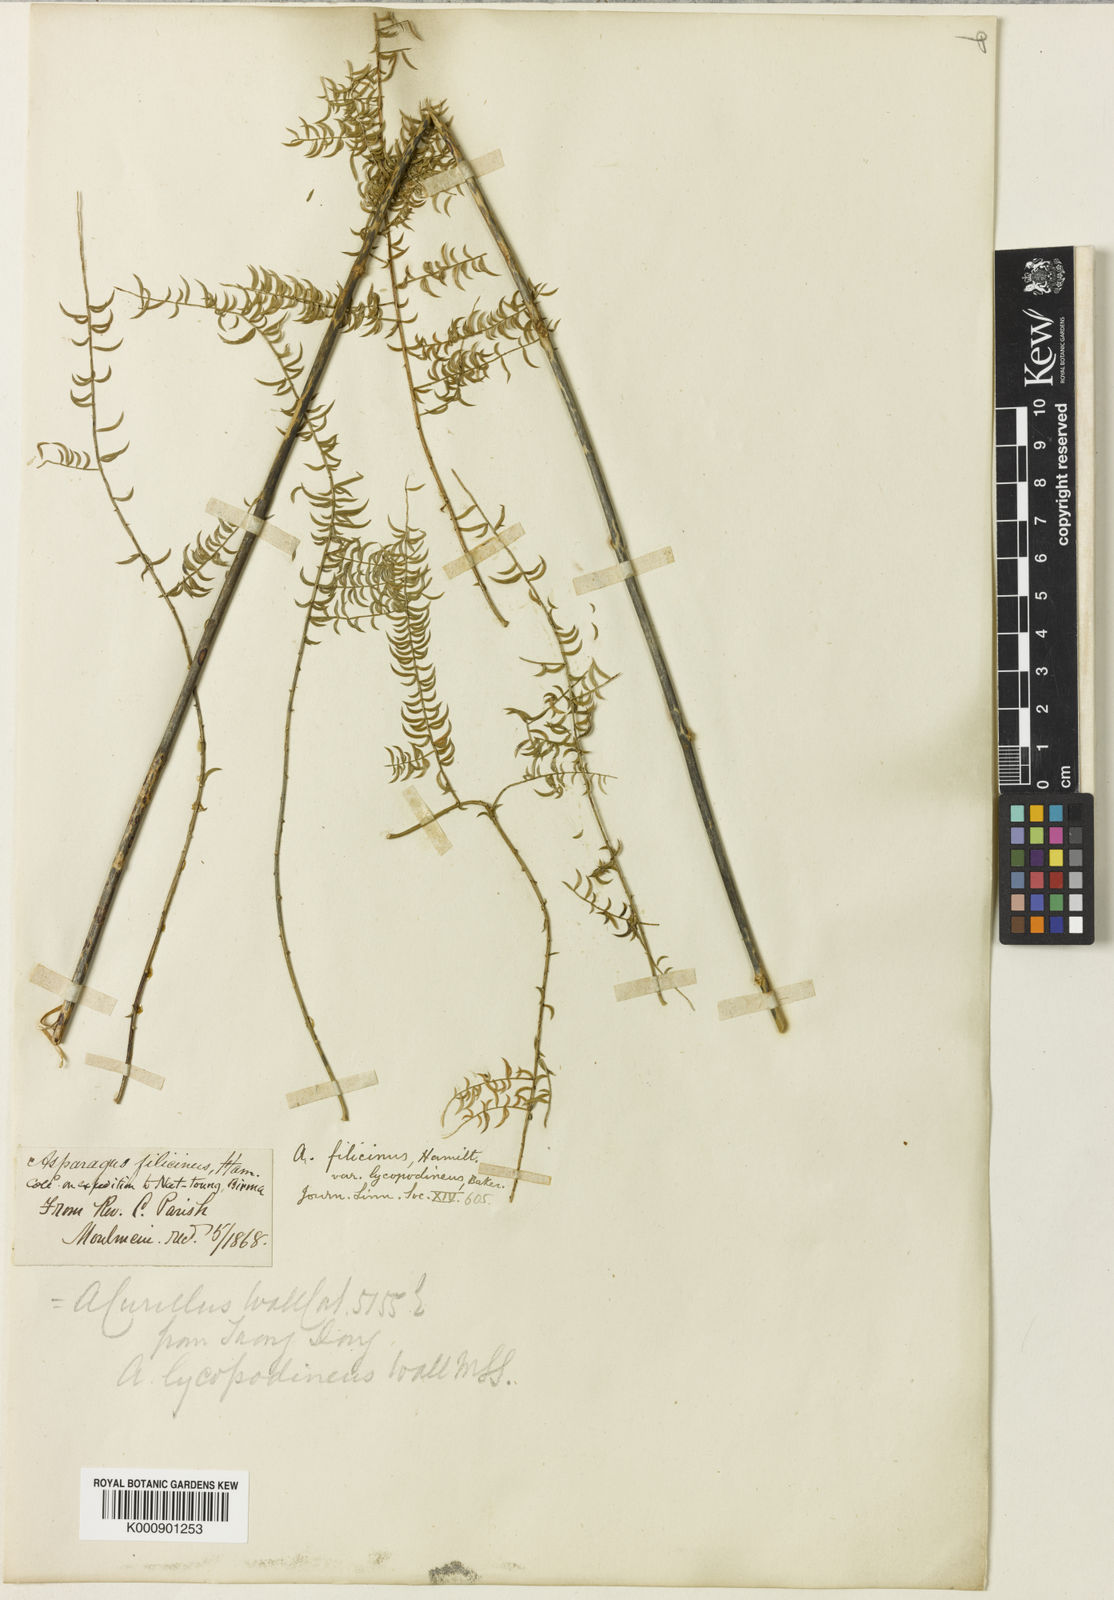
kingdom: Plantae
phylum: Tracheophyta
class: Liliopsida
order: Asparagales
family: Asparagaceae
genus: Asparagus
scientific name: Asparagus filicinus
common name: Fern asparagus
